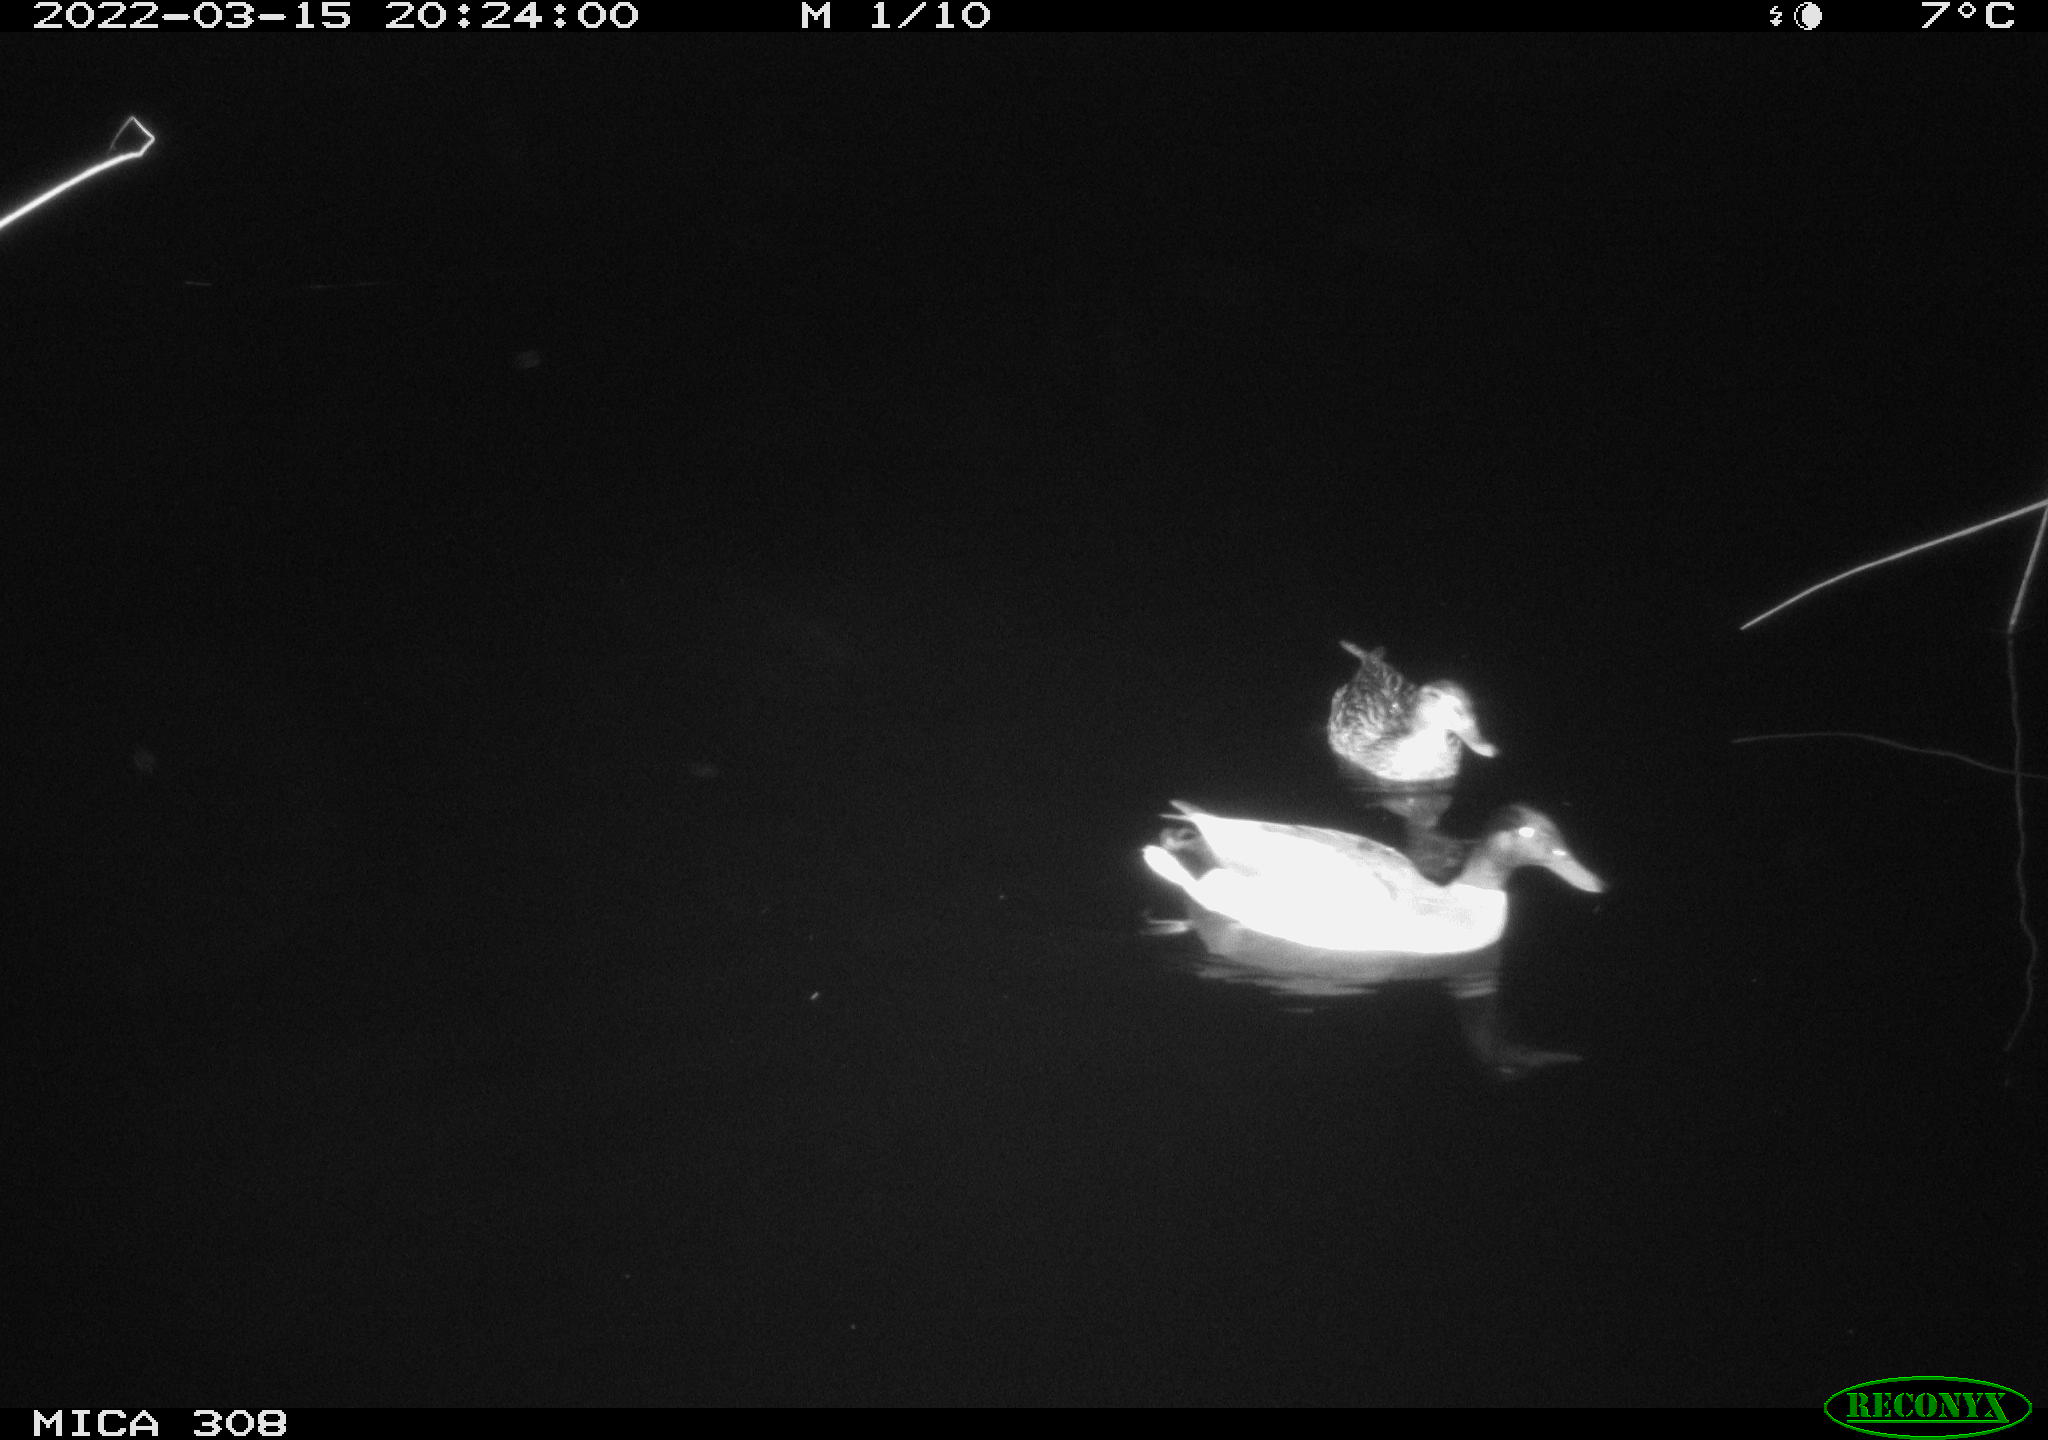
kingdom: Animalia
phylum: Chordata
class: Aves
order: Anseriformes
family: Anatidae
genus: Anas
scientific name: Anas platyrhynchos
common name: Mallard
